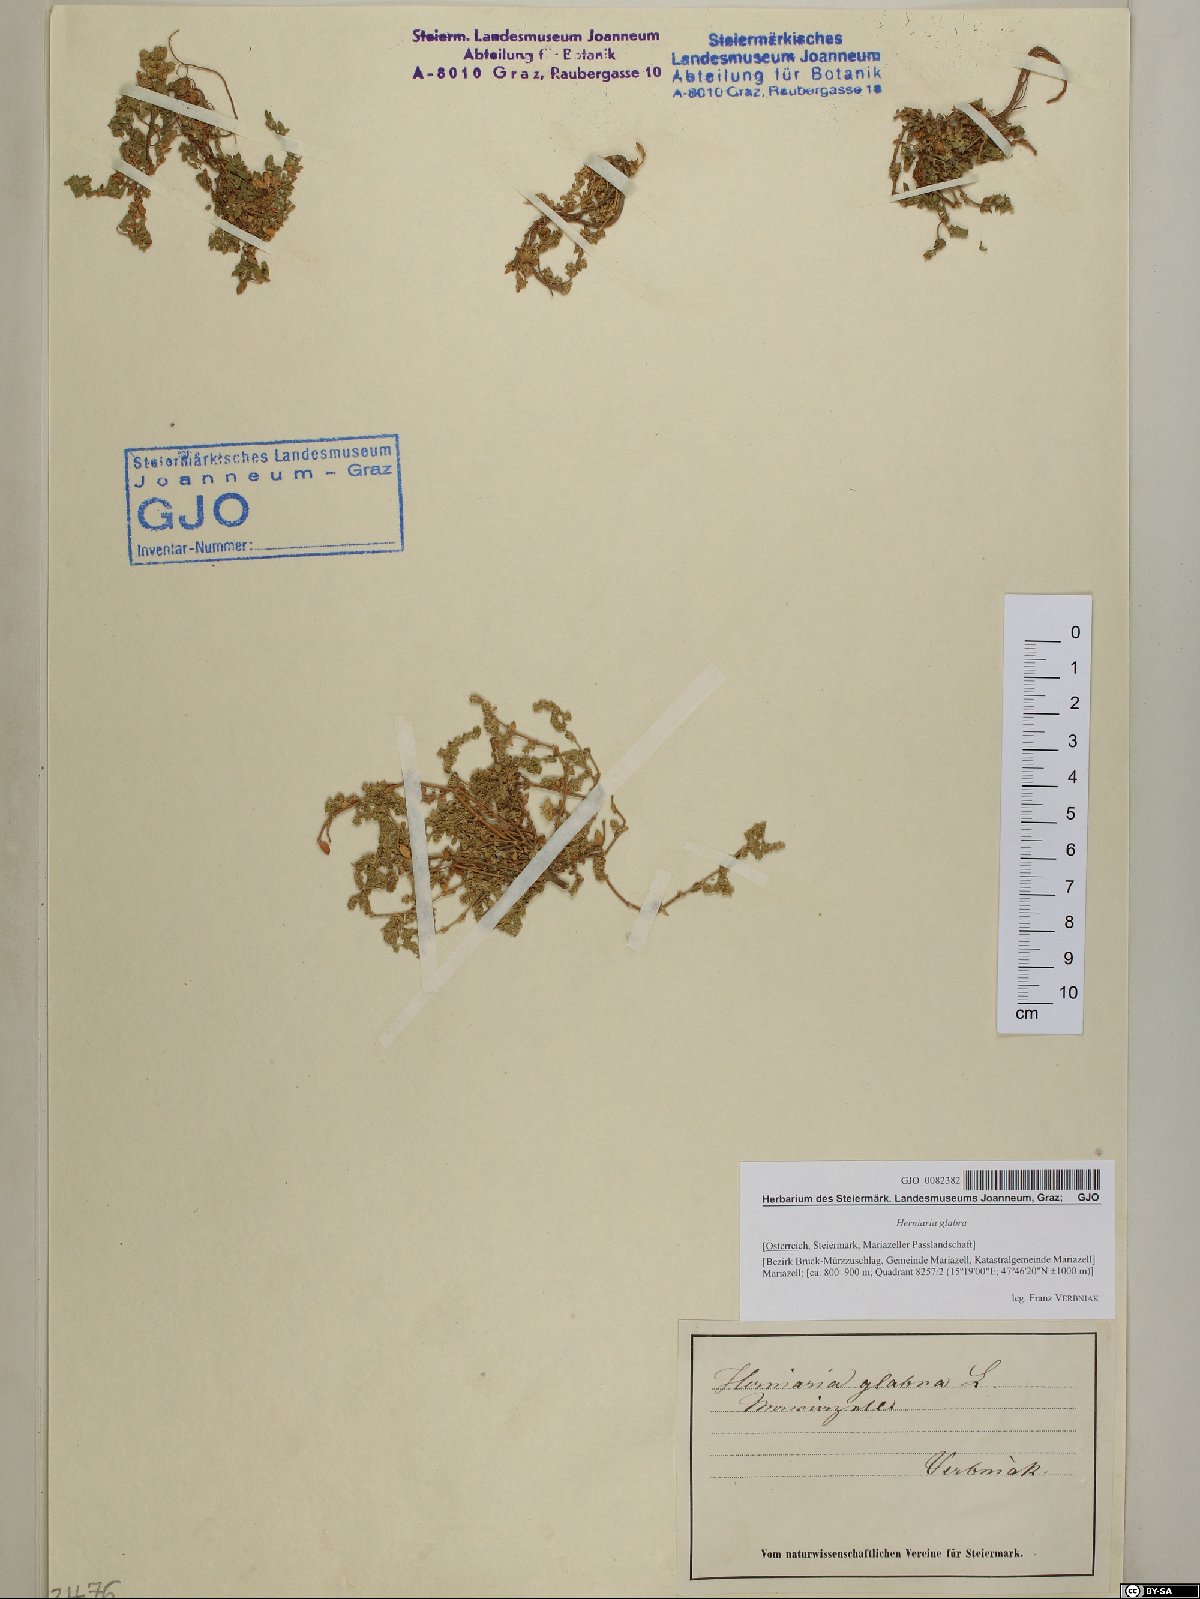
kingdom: Plantae
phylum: Tracheophyta
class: Magnoliopsida
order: Caryophyllales
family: Caryophyllaceae
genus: Herniaria
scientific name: Herniaria glabra
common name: Smooth rupturewort
